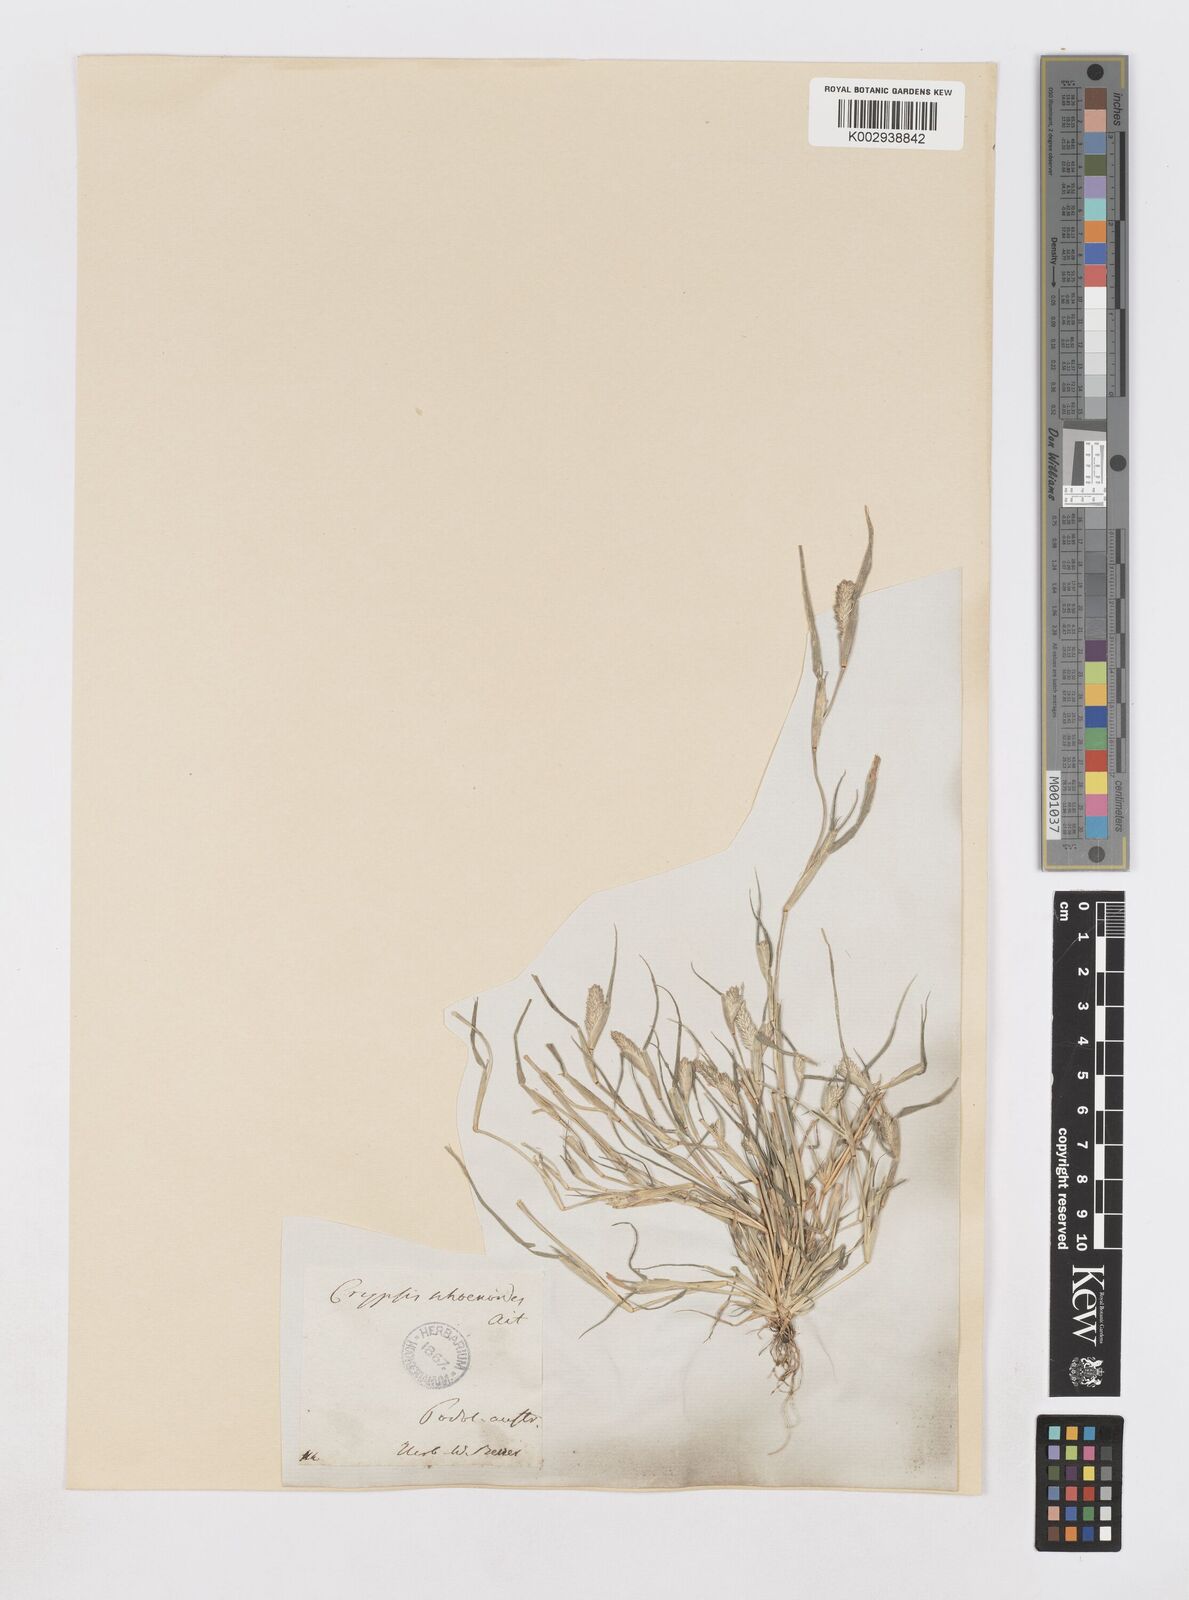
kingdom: Plantae
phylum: Tracheophyta
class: Liliopsida
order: Poales
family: Poaceae
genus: Sporobolus
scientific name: Sporobolus schoenoides
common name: Rush-like timothy
